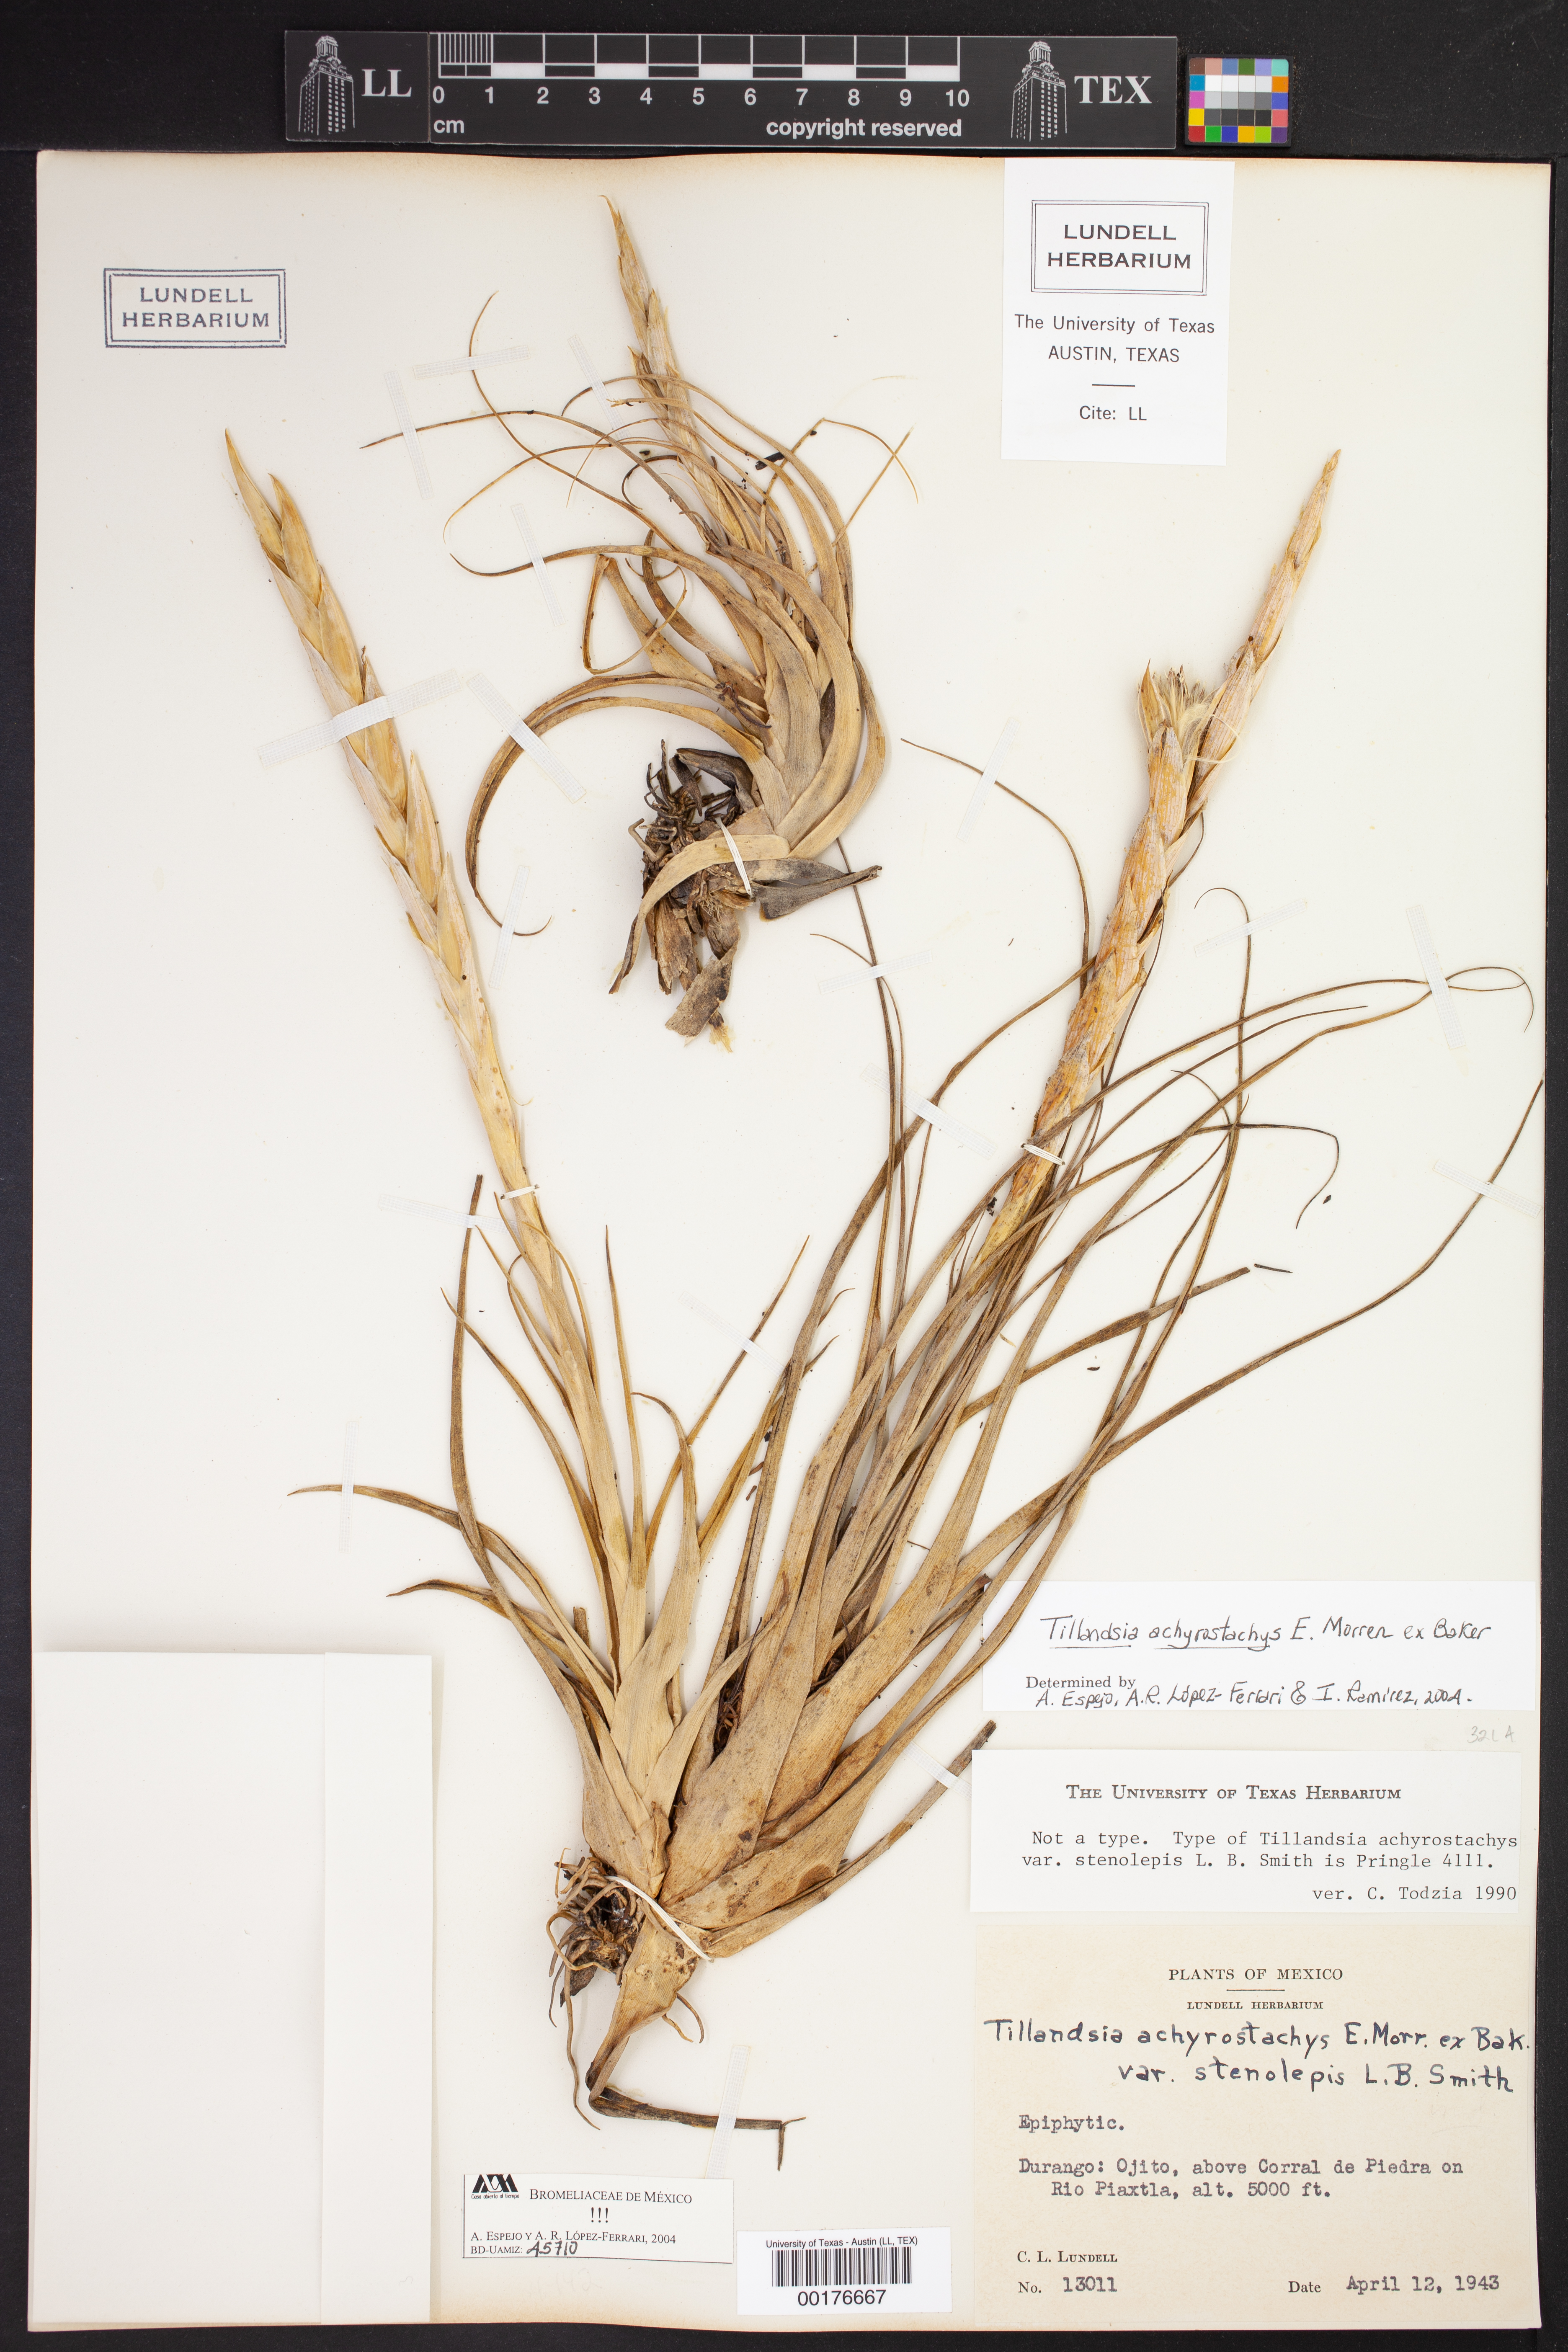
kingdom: Plantae
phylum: Tracheophyta
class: Liliopsida
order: Poales
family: Bromeliaceae
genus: Tillandsia
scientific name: Tillandsia achyrostachys
